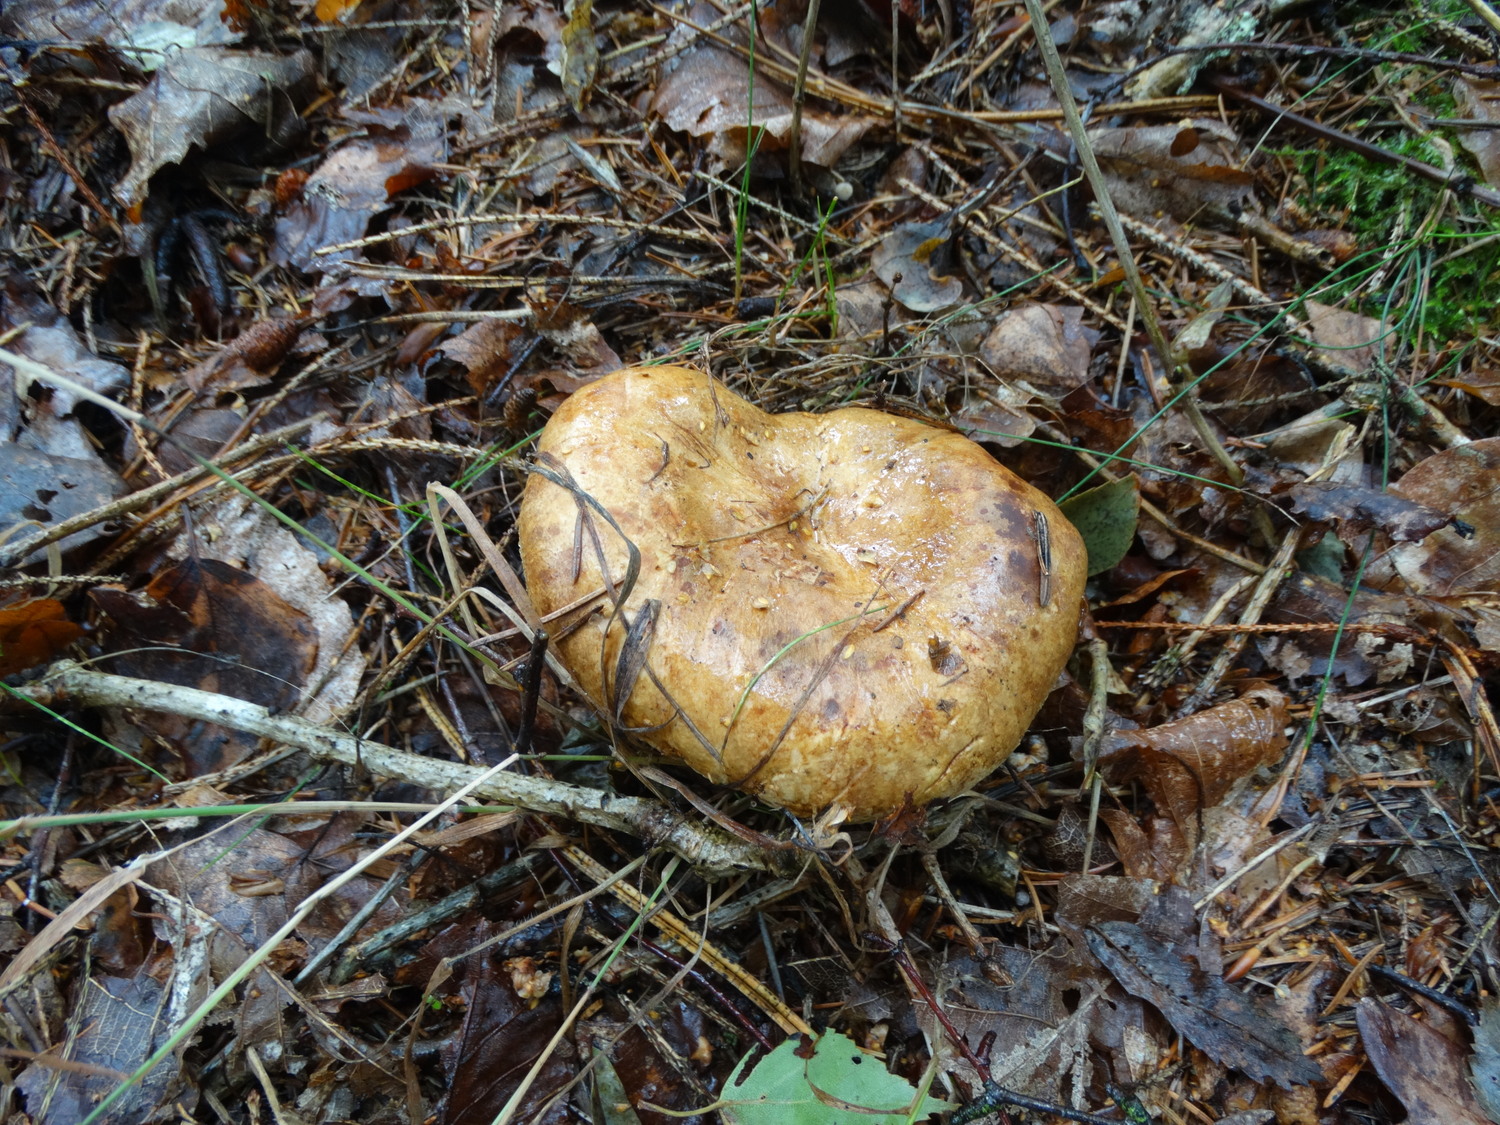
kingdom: Fungi
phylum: Basidiomycota
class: Agaricomycetes
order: Boletales
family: Paxillaceae
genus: Paxillus
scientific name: Paxillus involutus
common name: almindelig netbladhat
